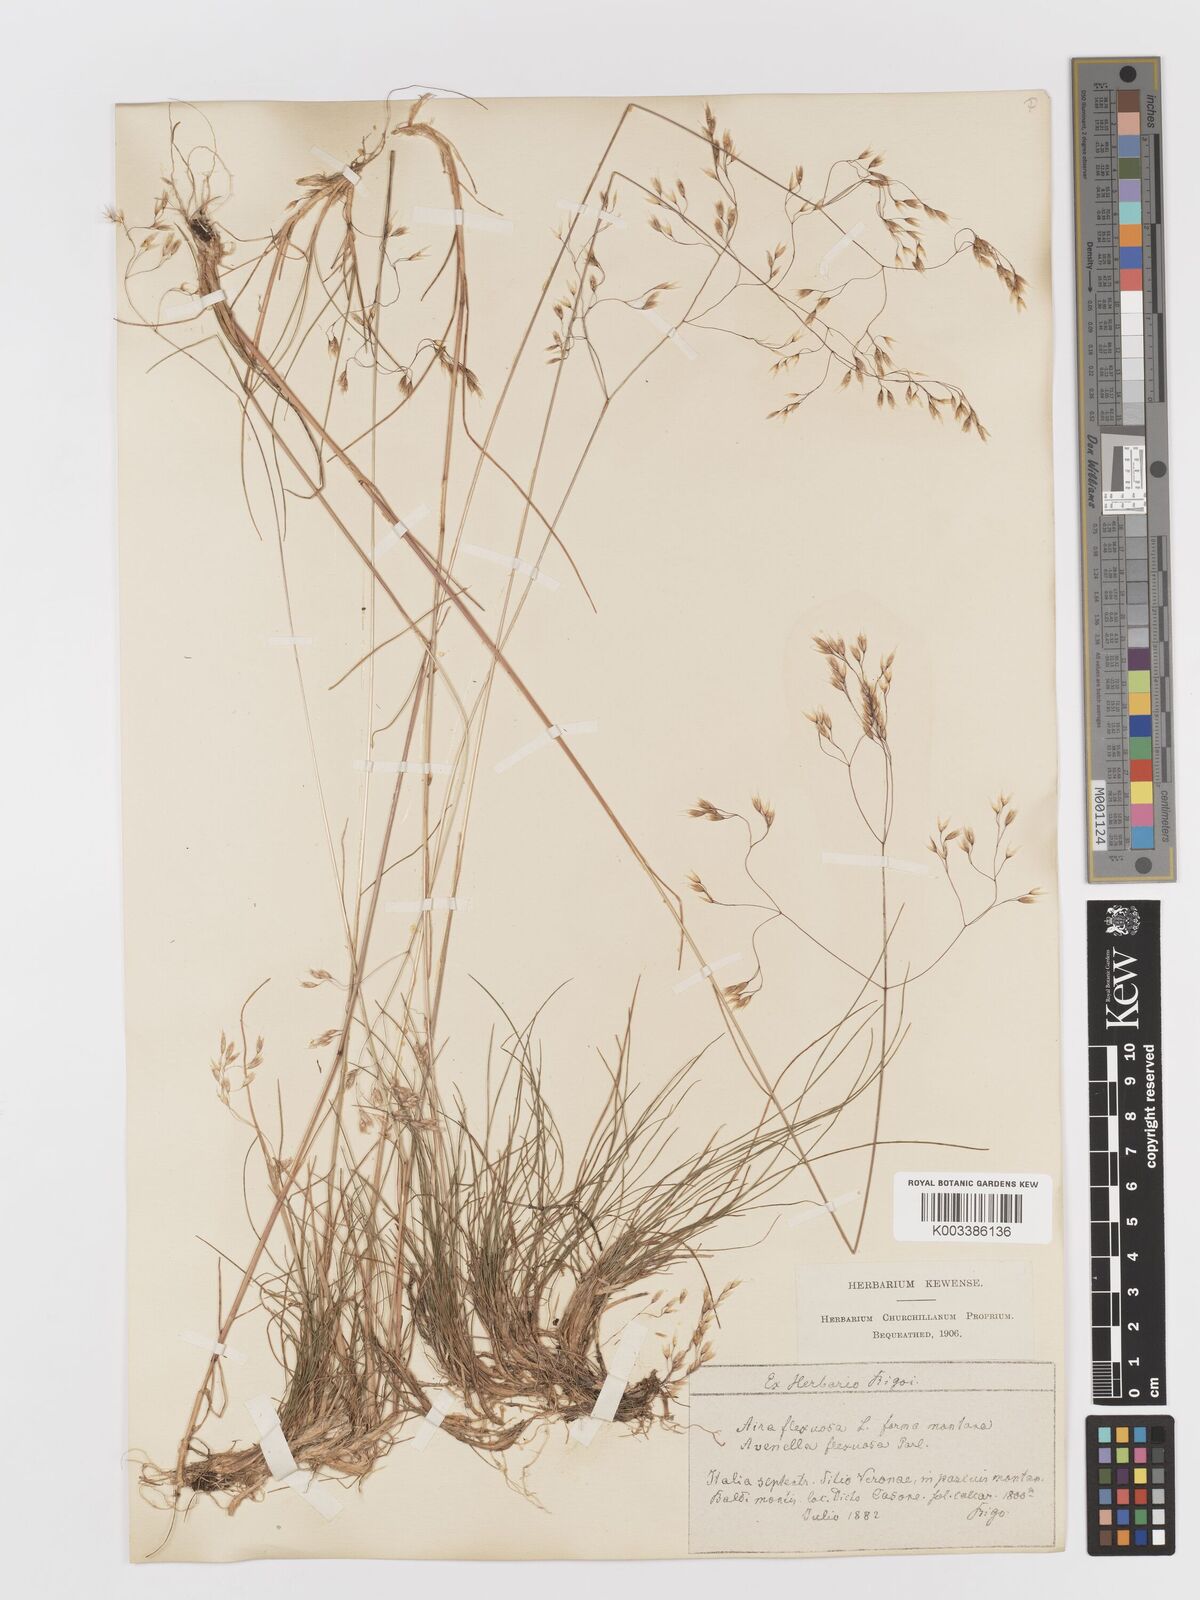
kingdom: Plantae
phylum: Tracheophyta
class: Liliopsida
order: Poales
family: Poaceae
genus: Avenella
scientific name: Avenella flexuosa
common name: Wavy hairgrass
